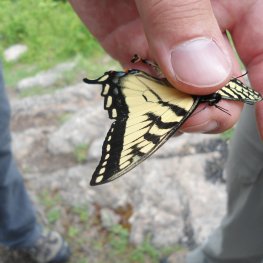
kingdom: Animalia
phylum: Arthropoda
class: Insecta
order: Lepidoptera
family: Papilionidae
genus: Pterourus
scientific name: Pterourus canadensis
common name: Canadian Tiger Swallowtail
